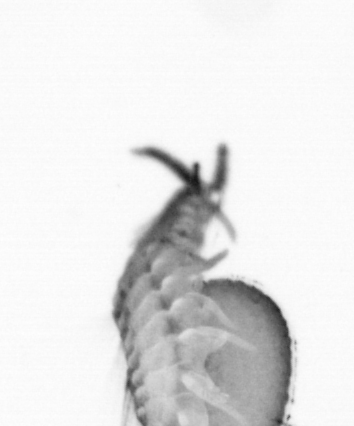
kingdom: Animalia
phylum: Annelida
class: Polychaeta
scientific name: Polychaeta
